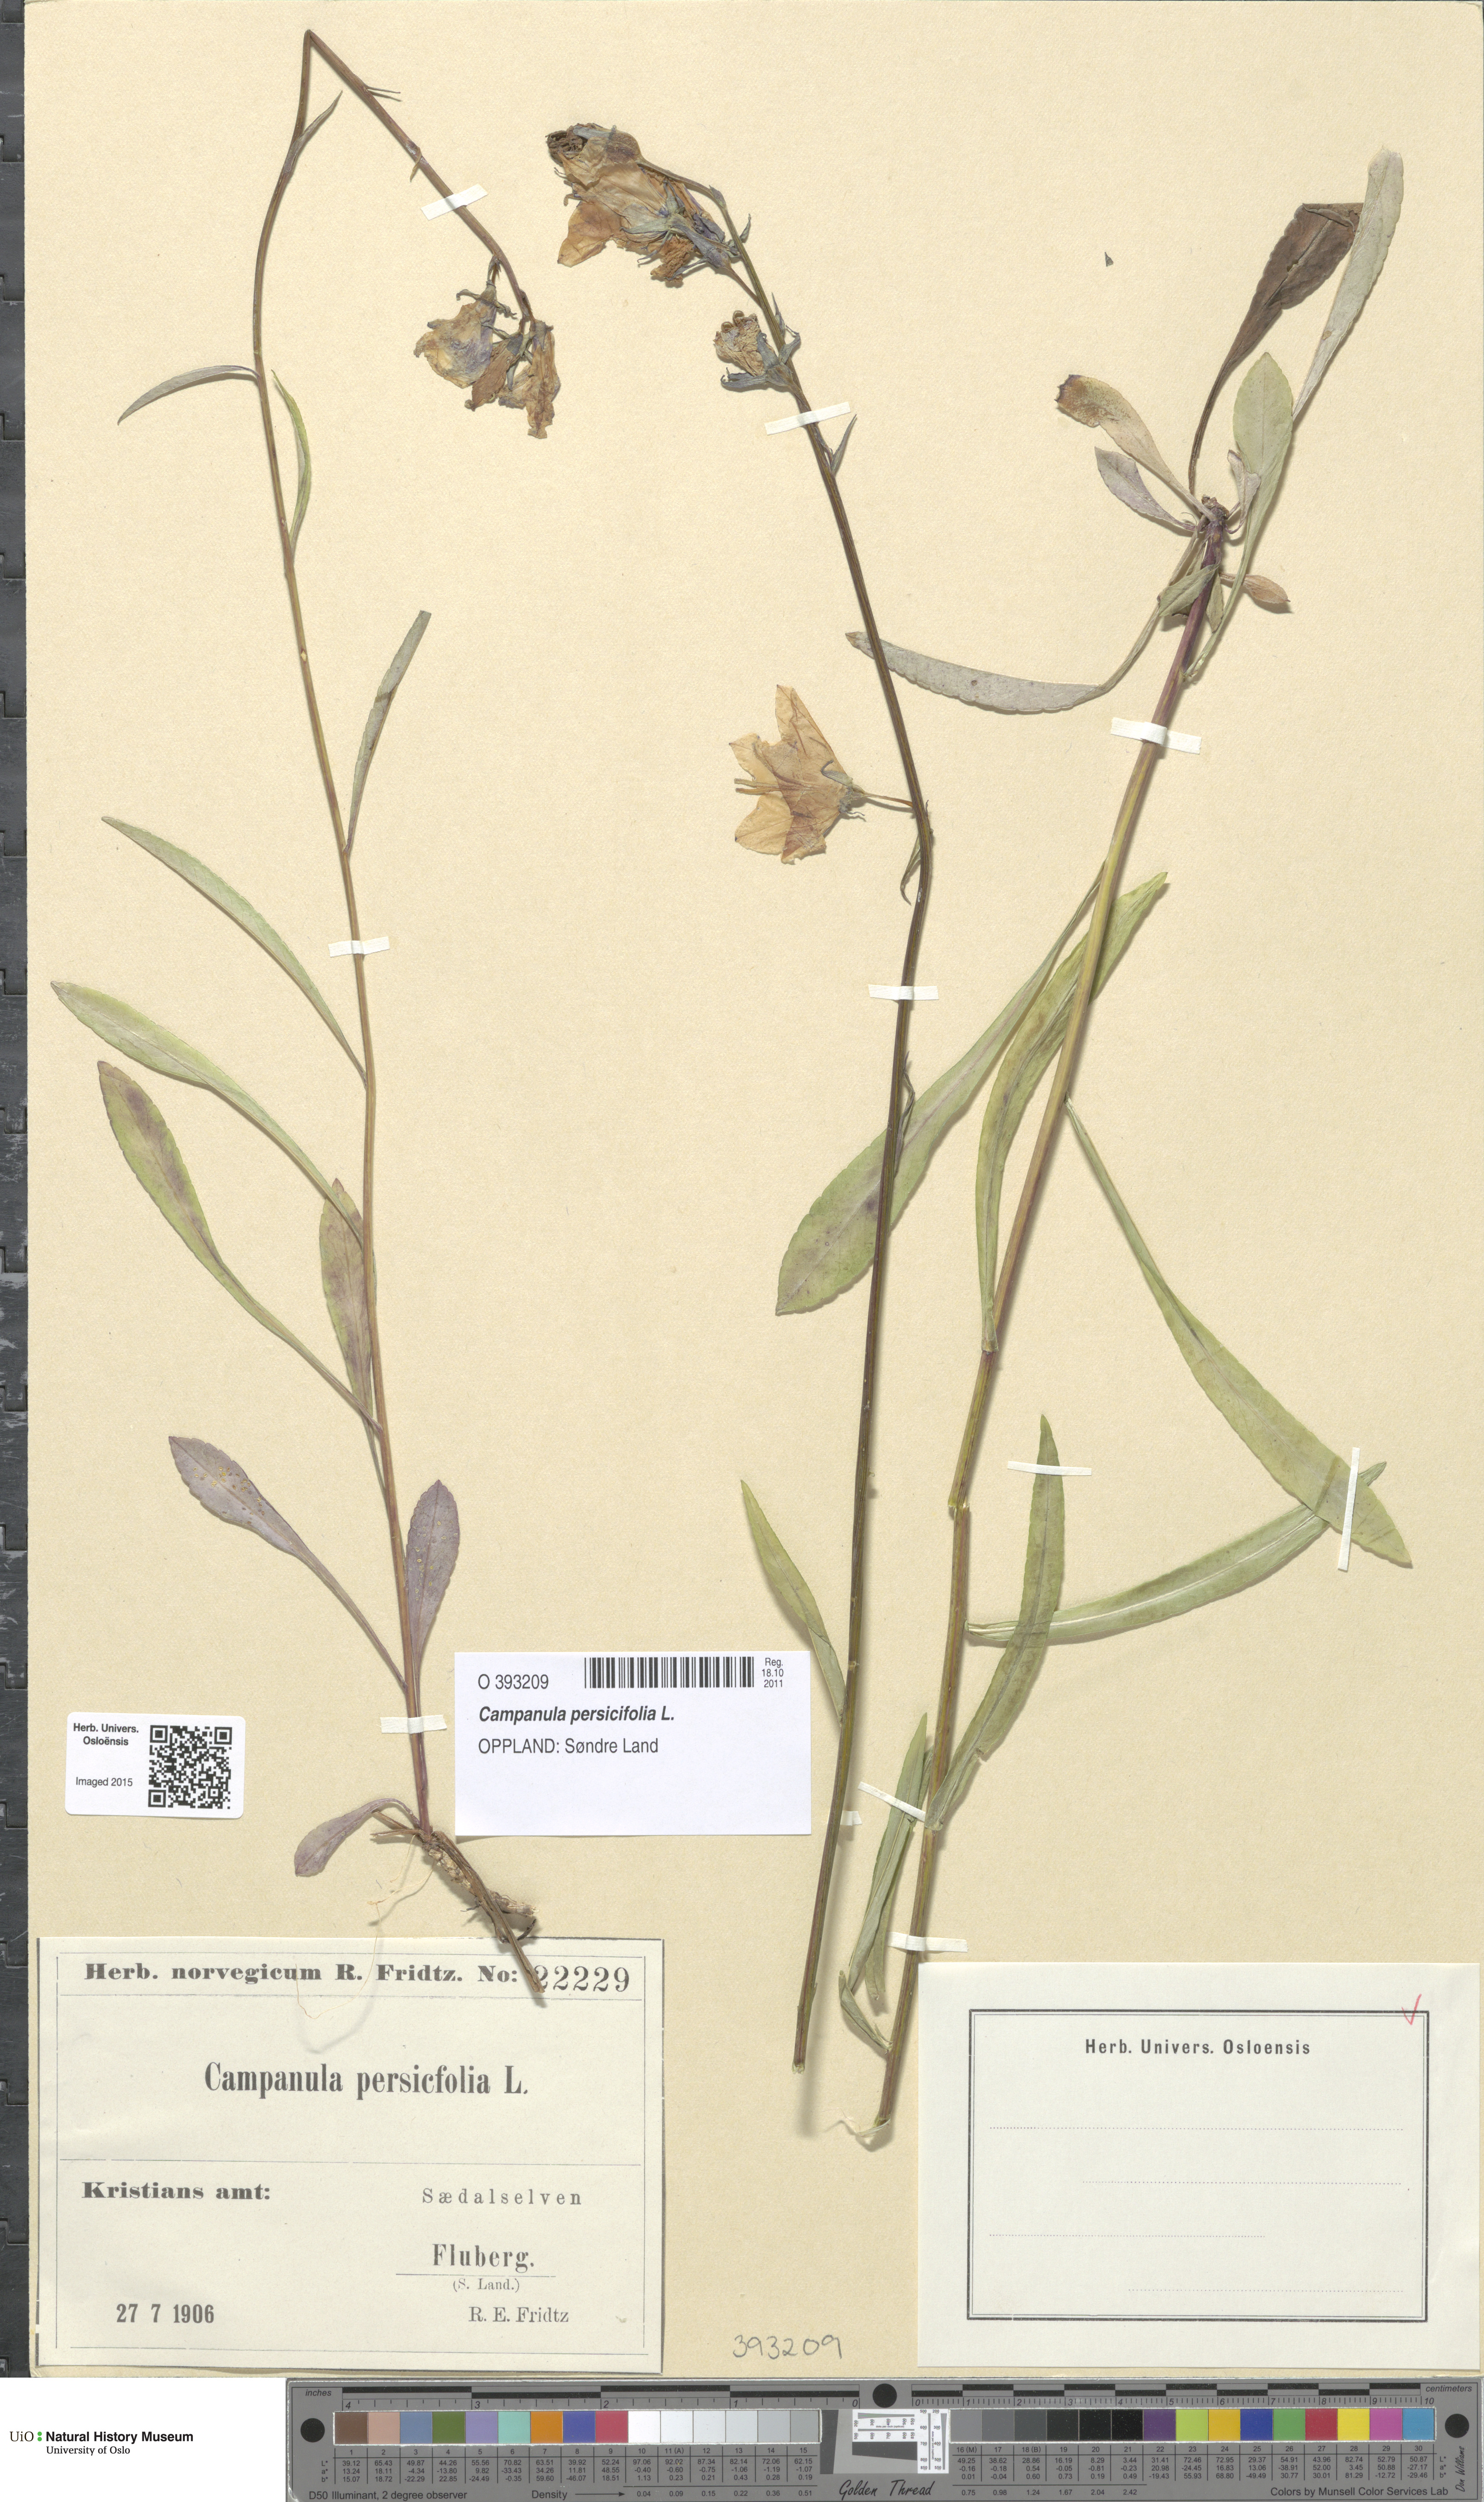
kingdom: Plantae
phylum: Tracheophyta
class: Magnoliopsida
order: Asterales
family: Campanulaceae
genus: Campanula
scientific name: Campanula persicifolia
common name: Peach-leaved bellflower
